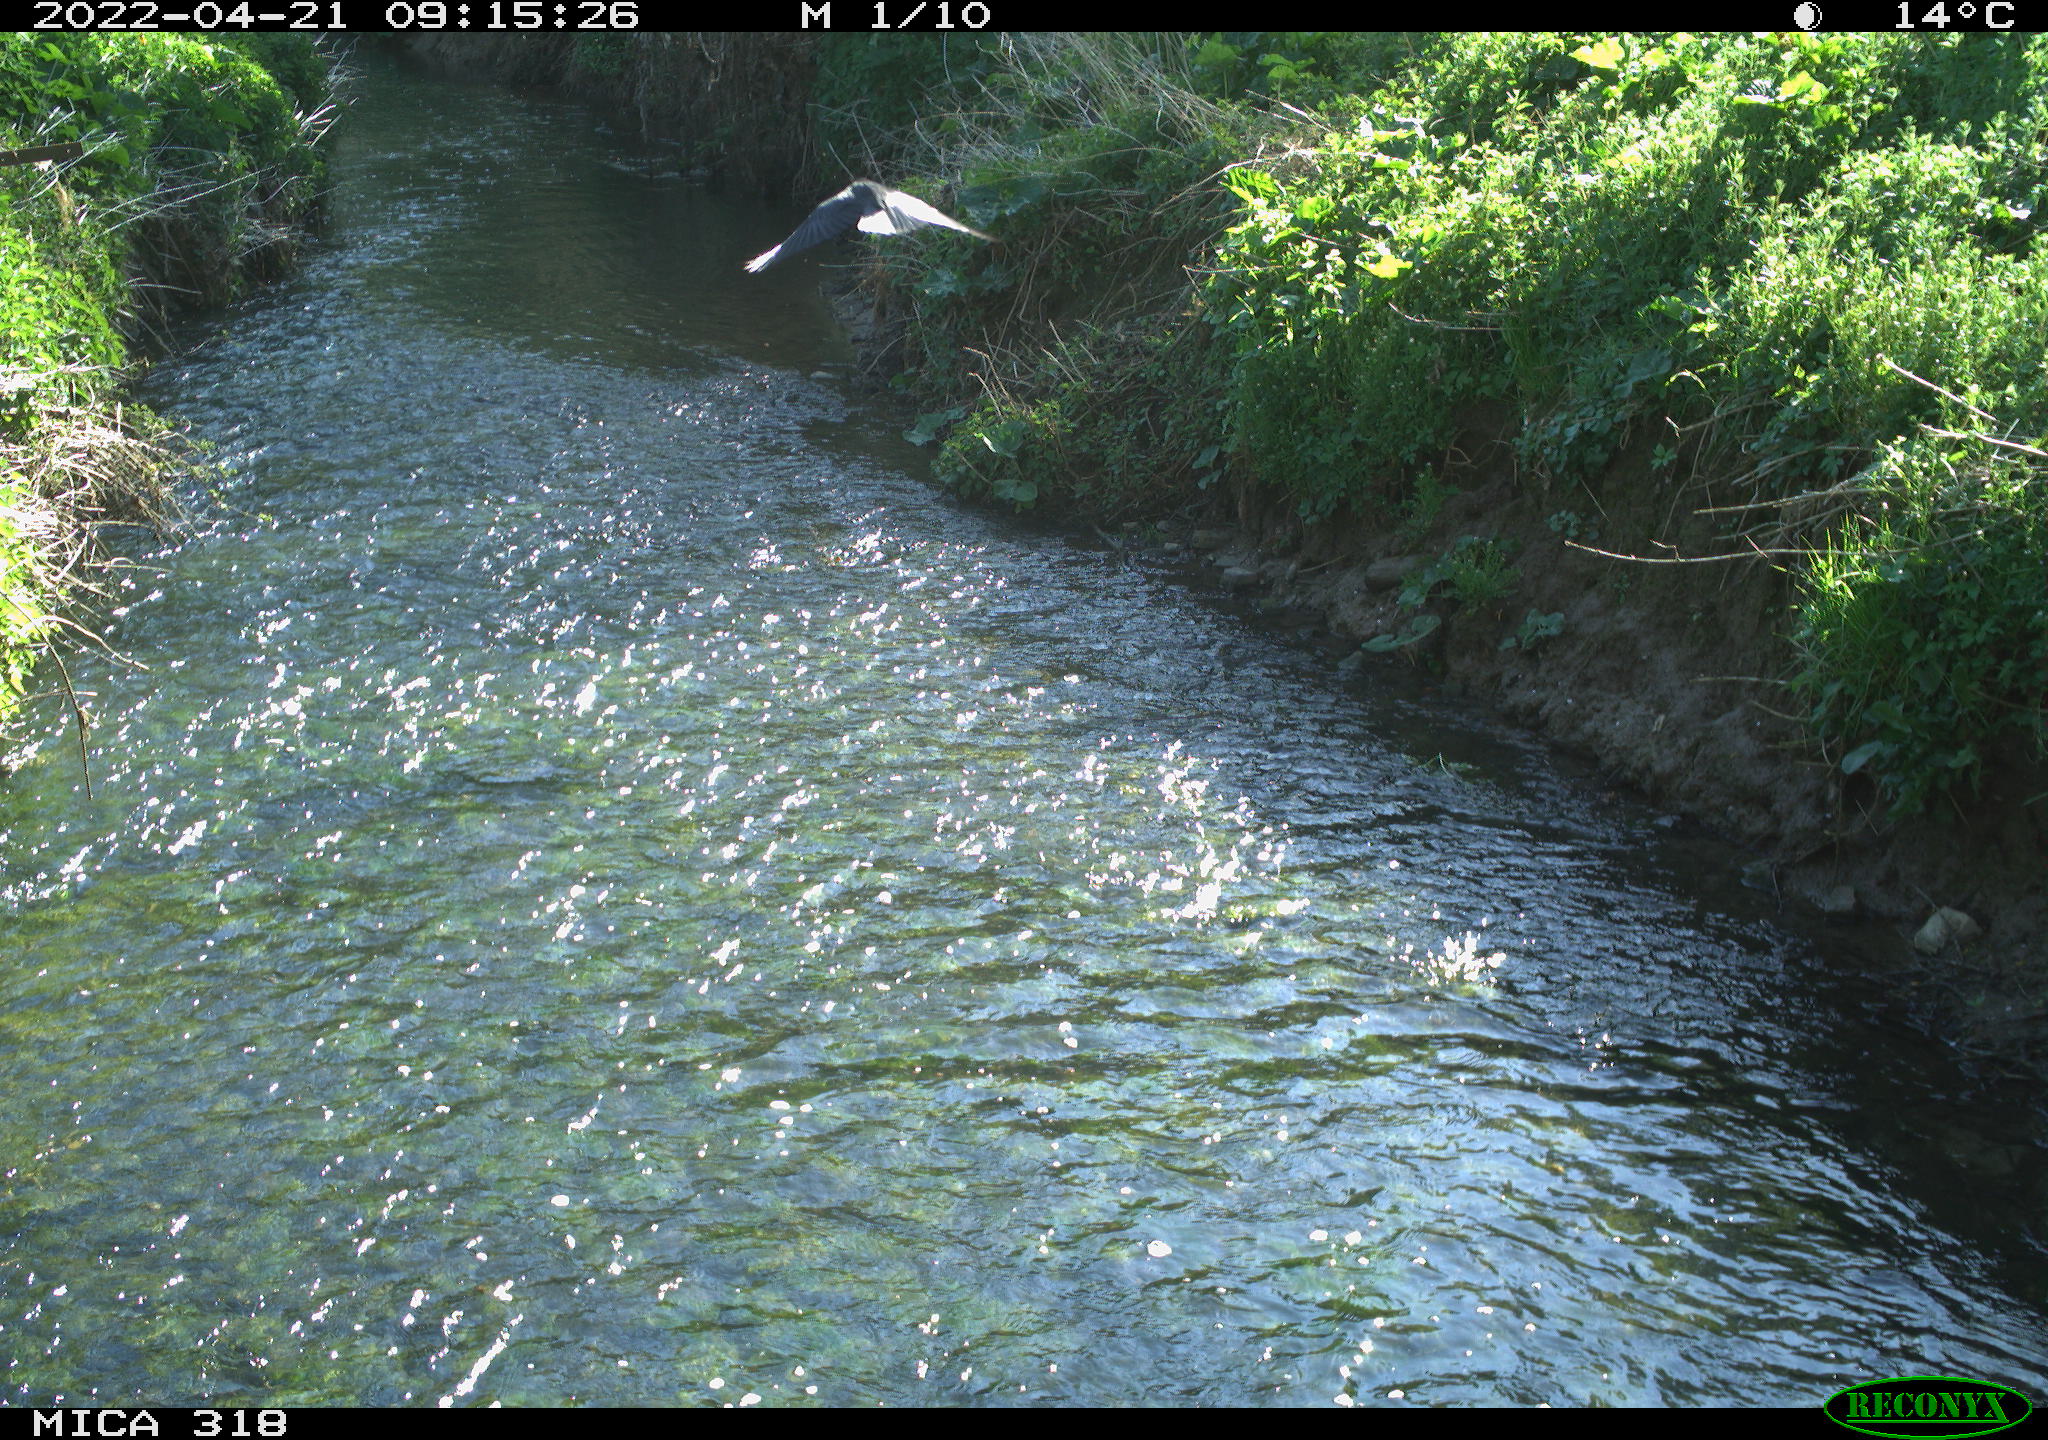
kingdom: Animalia
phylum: Chordata
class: Aves
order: Passeriformes
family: Corvidae
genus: Corvus
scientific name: Corvus corone
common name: Carrion crow
